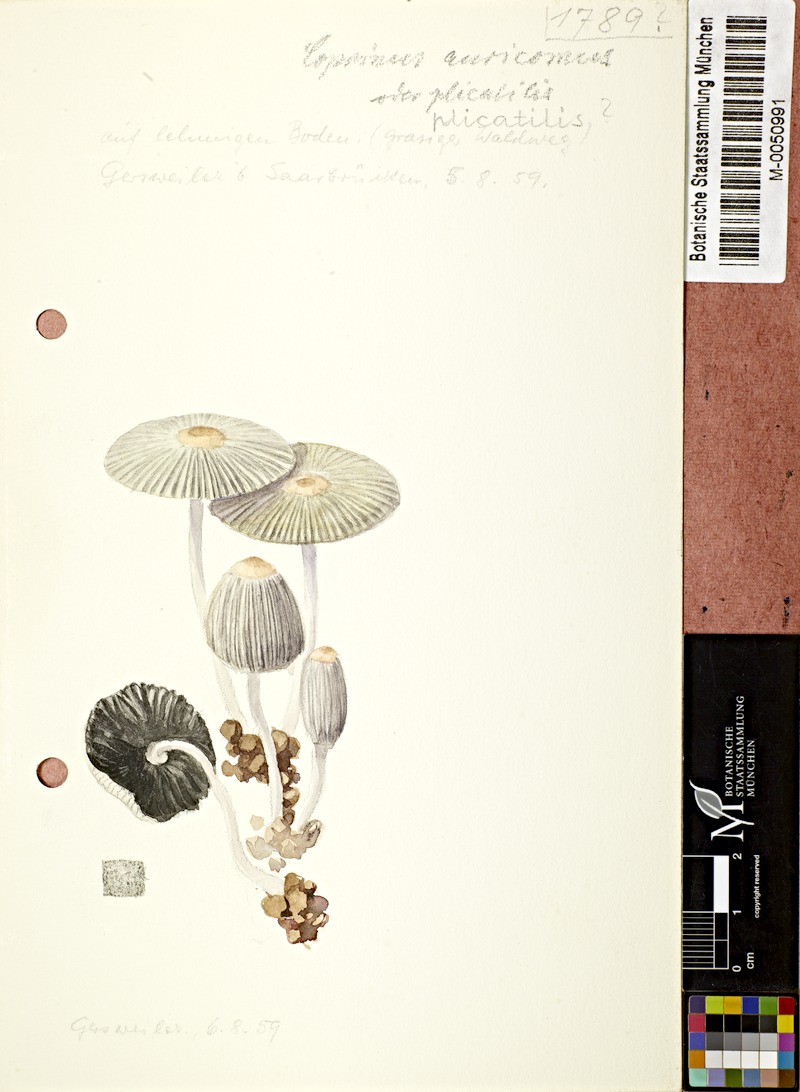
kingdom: Fungi
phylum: Basidiomycota
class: Agaricomycetes
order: Agaricales
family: Psathyrellaceae
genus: Parasola
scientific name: Parasola auricoma
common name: Goldenhaired inkcap
